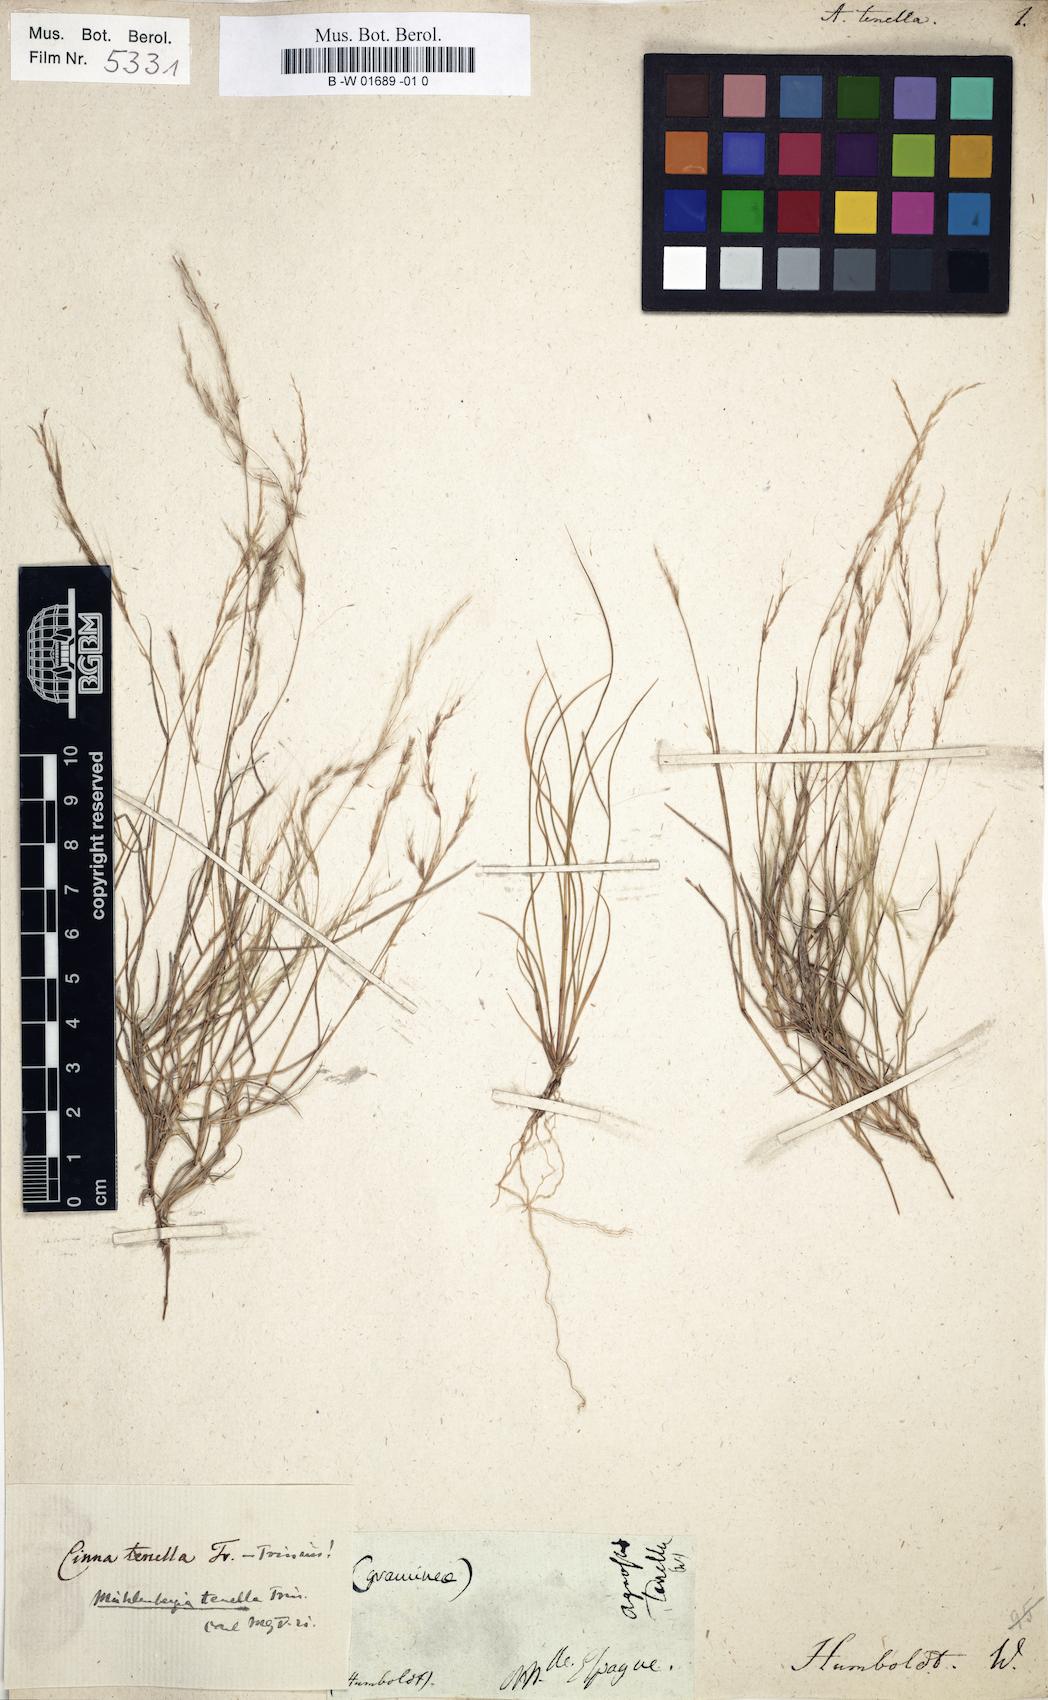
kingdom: Plantae
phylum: Tracheophyta
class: Liliopsida
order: Poales
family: Poaceae
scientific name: Poaceae
